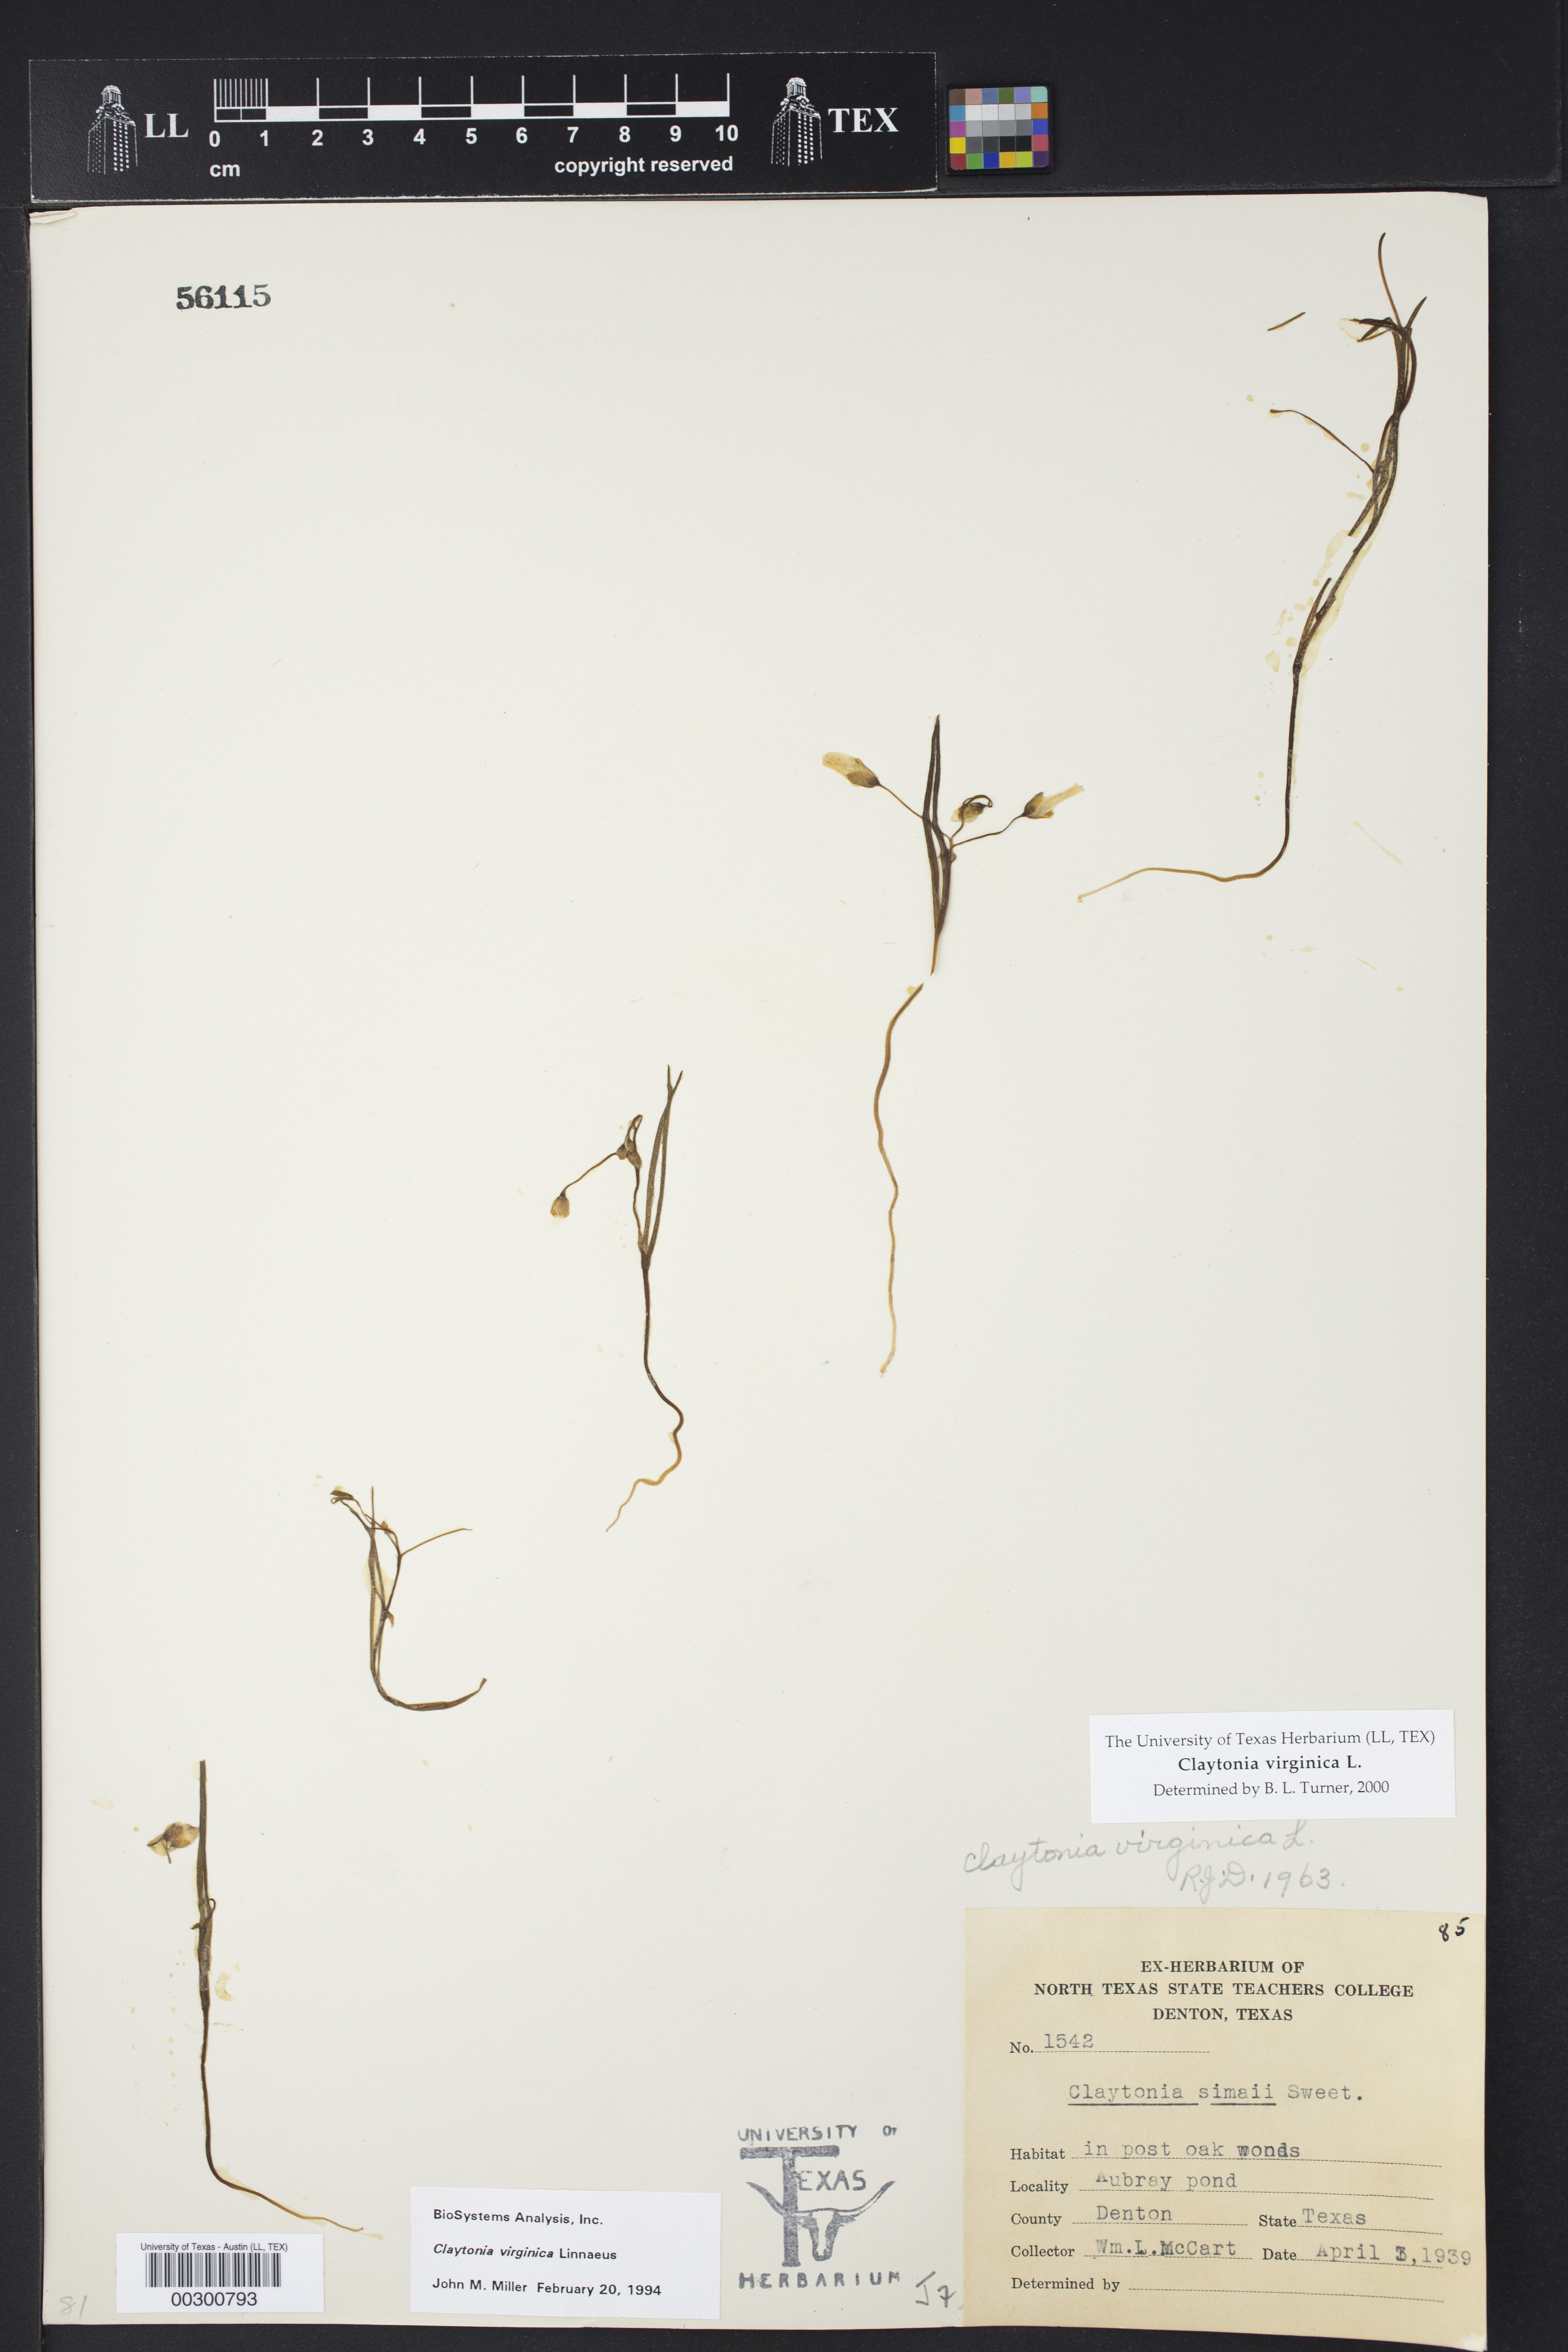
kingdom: Plantae
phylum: Tracheophyta
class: Magnoliopsida
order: Caryophyllales
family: Montiaceae
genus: Claytonia
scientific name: Claytonia virginica
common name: Virginia springbeauty
